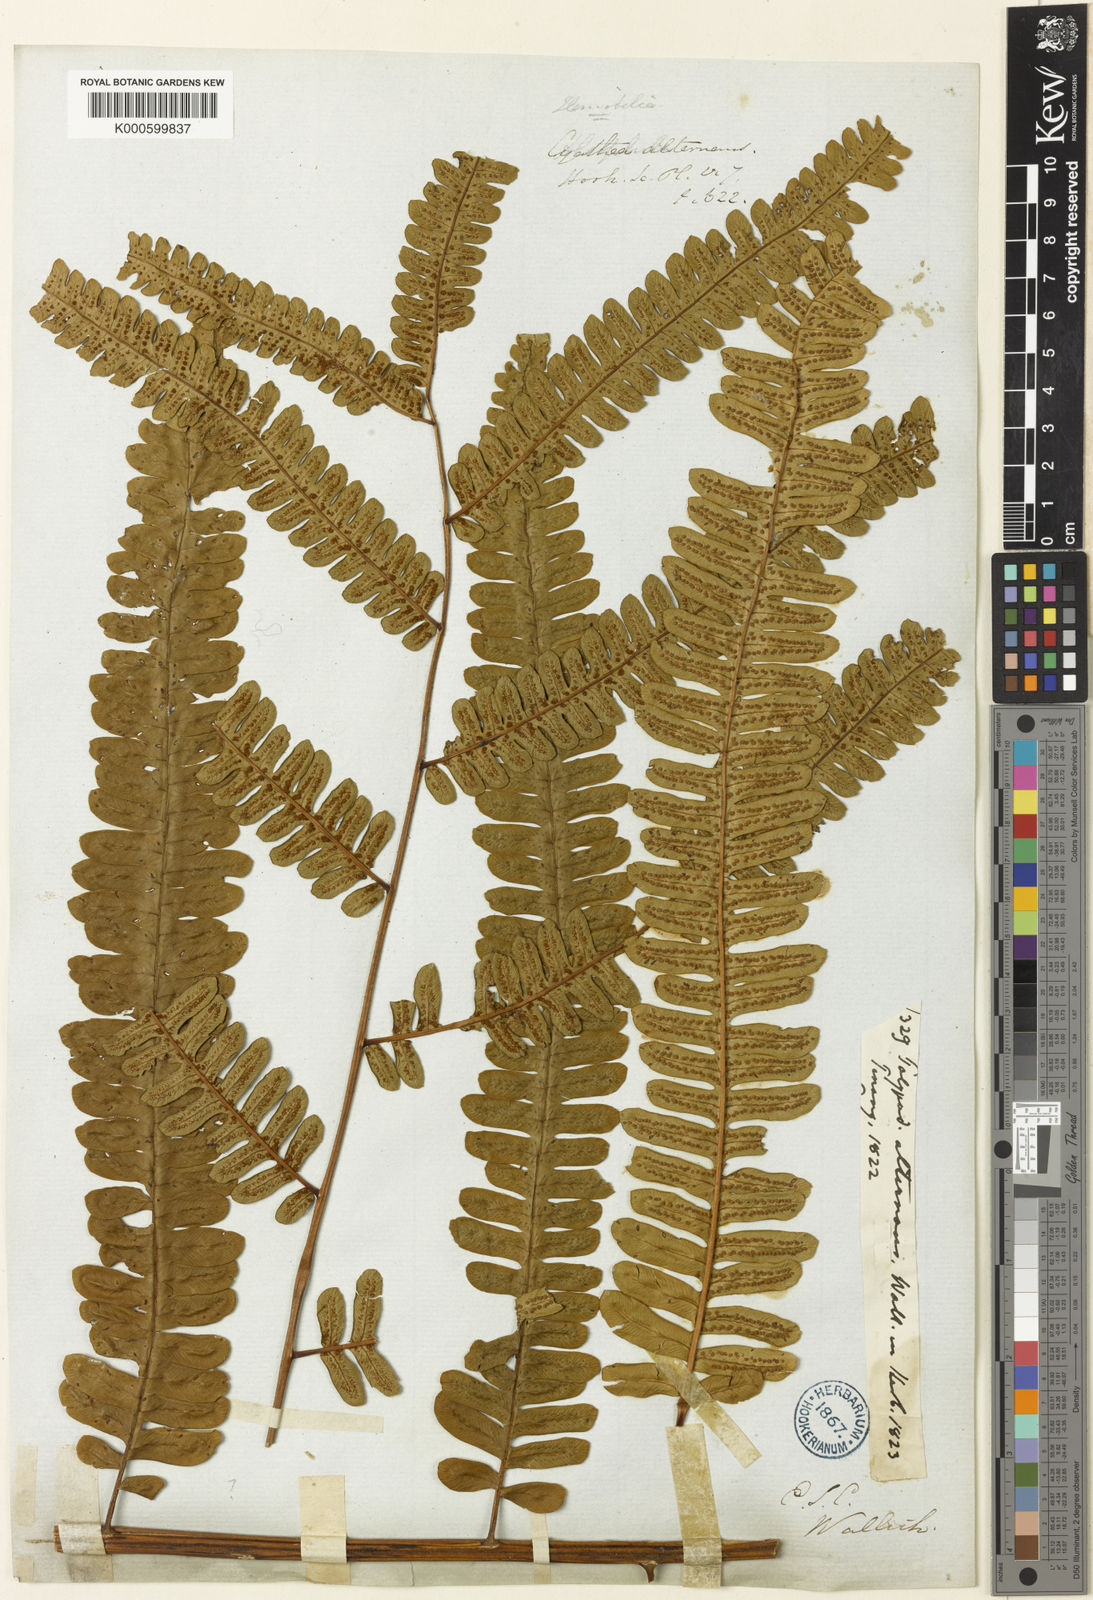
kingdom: Plantae
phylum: Tracheophyta
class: Polypodiopsida
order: Cyatheales
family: Cyatheaceae
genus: Alsophila
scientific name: Alsophila alternans
